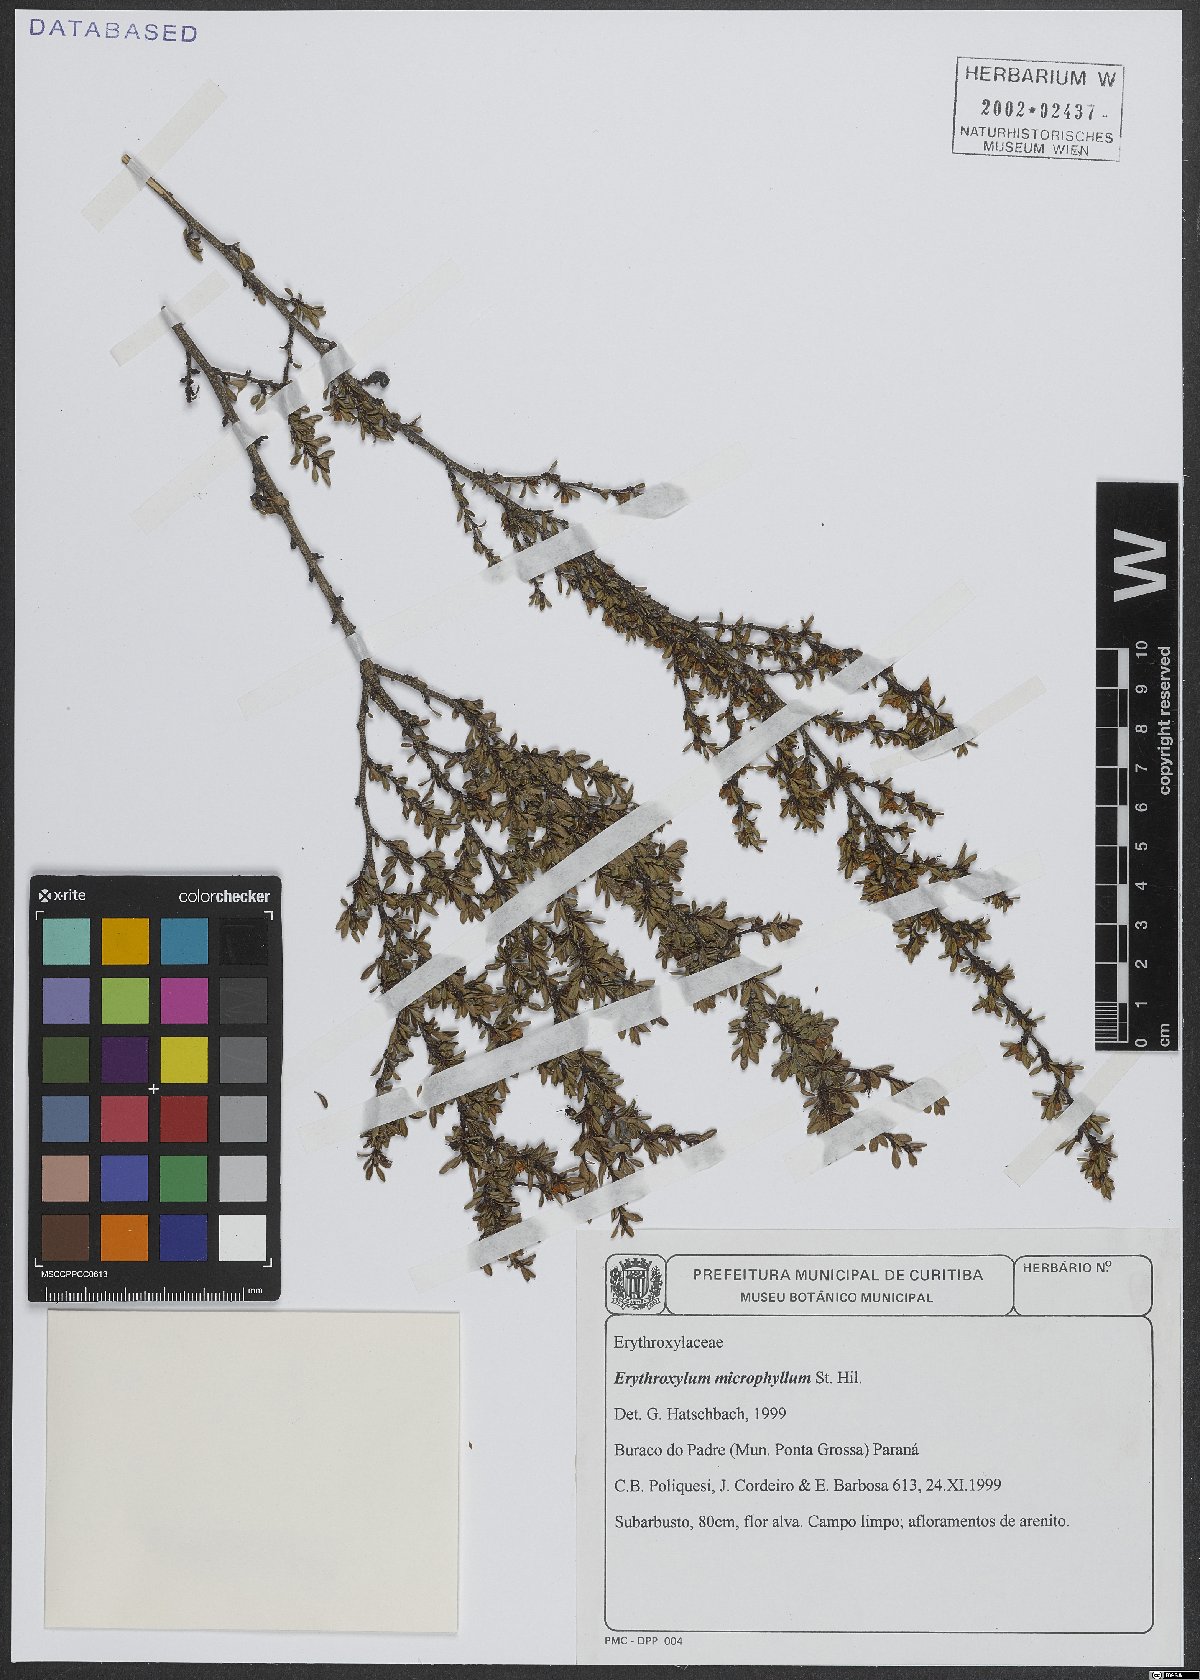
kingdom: Plantae
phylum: Tracheophyta
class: Magnoliopsida
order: Malpighiales
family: Erythroxylaceae
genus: Erythroxylum
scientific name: Erythroxylum microphyllum
